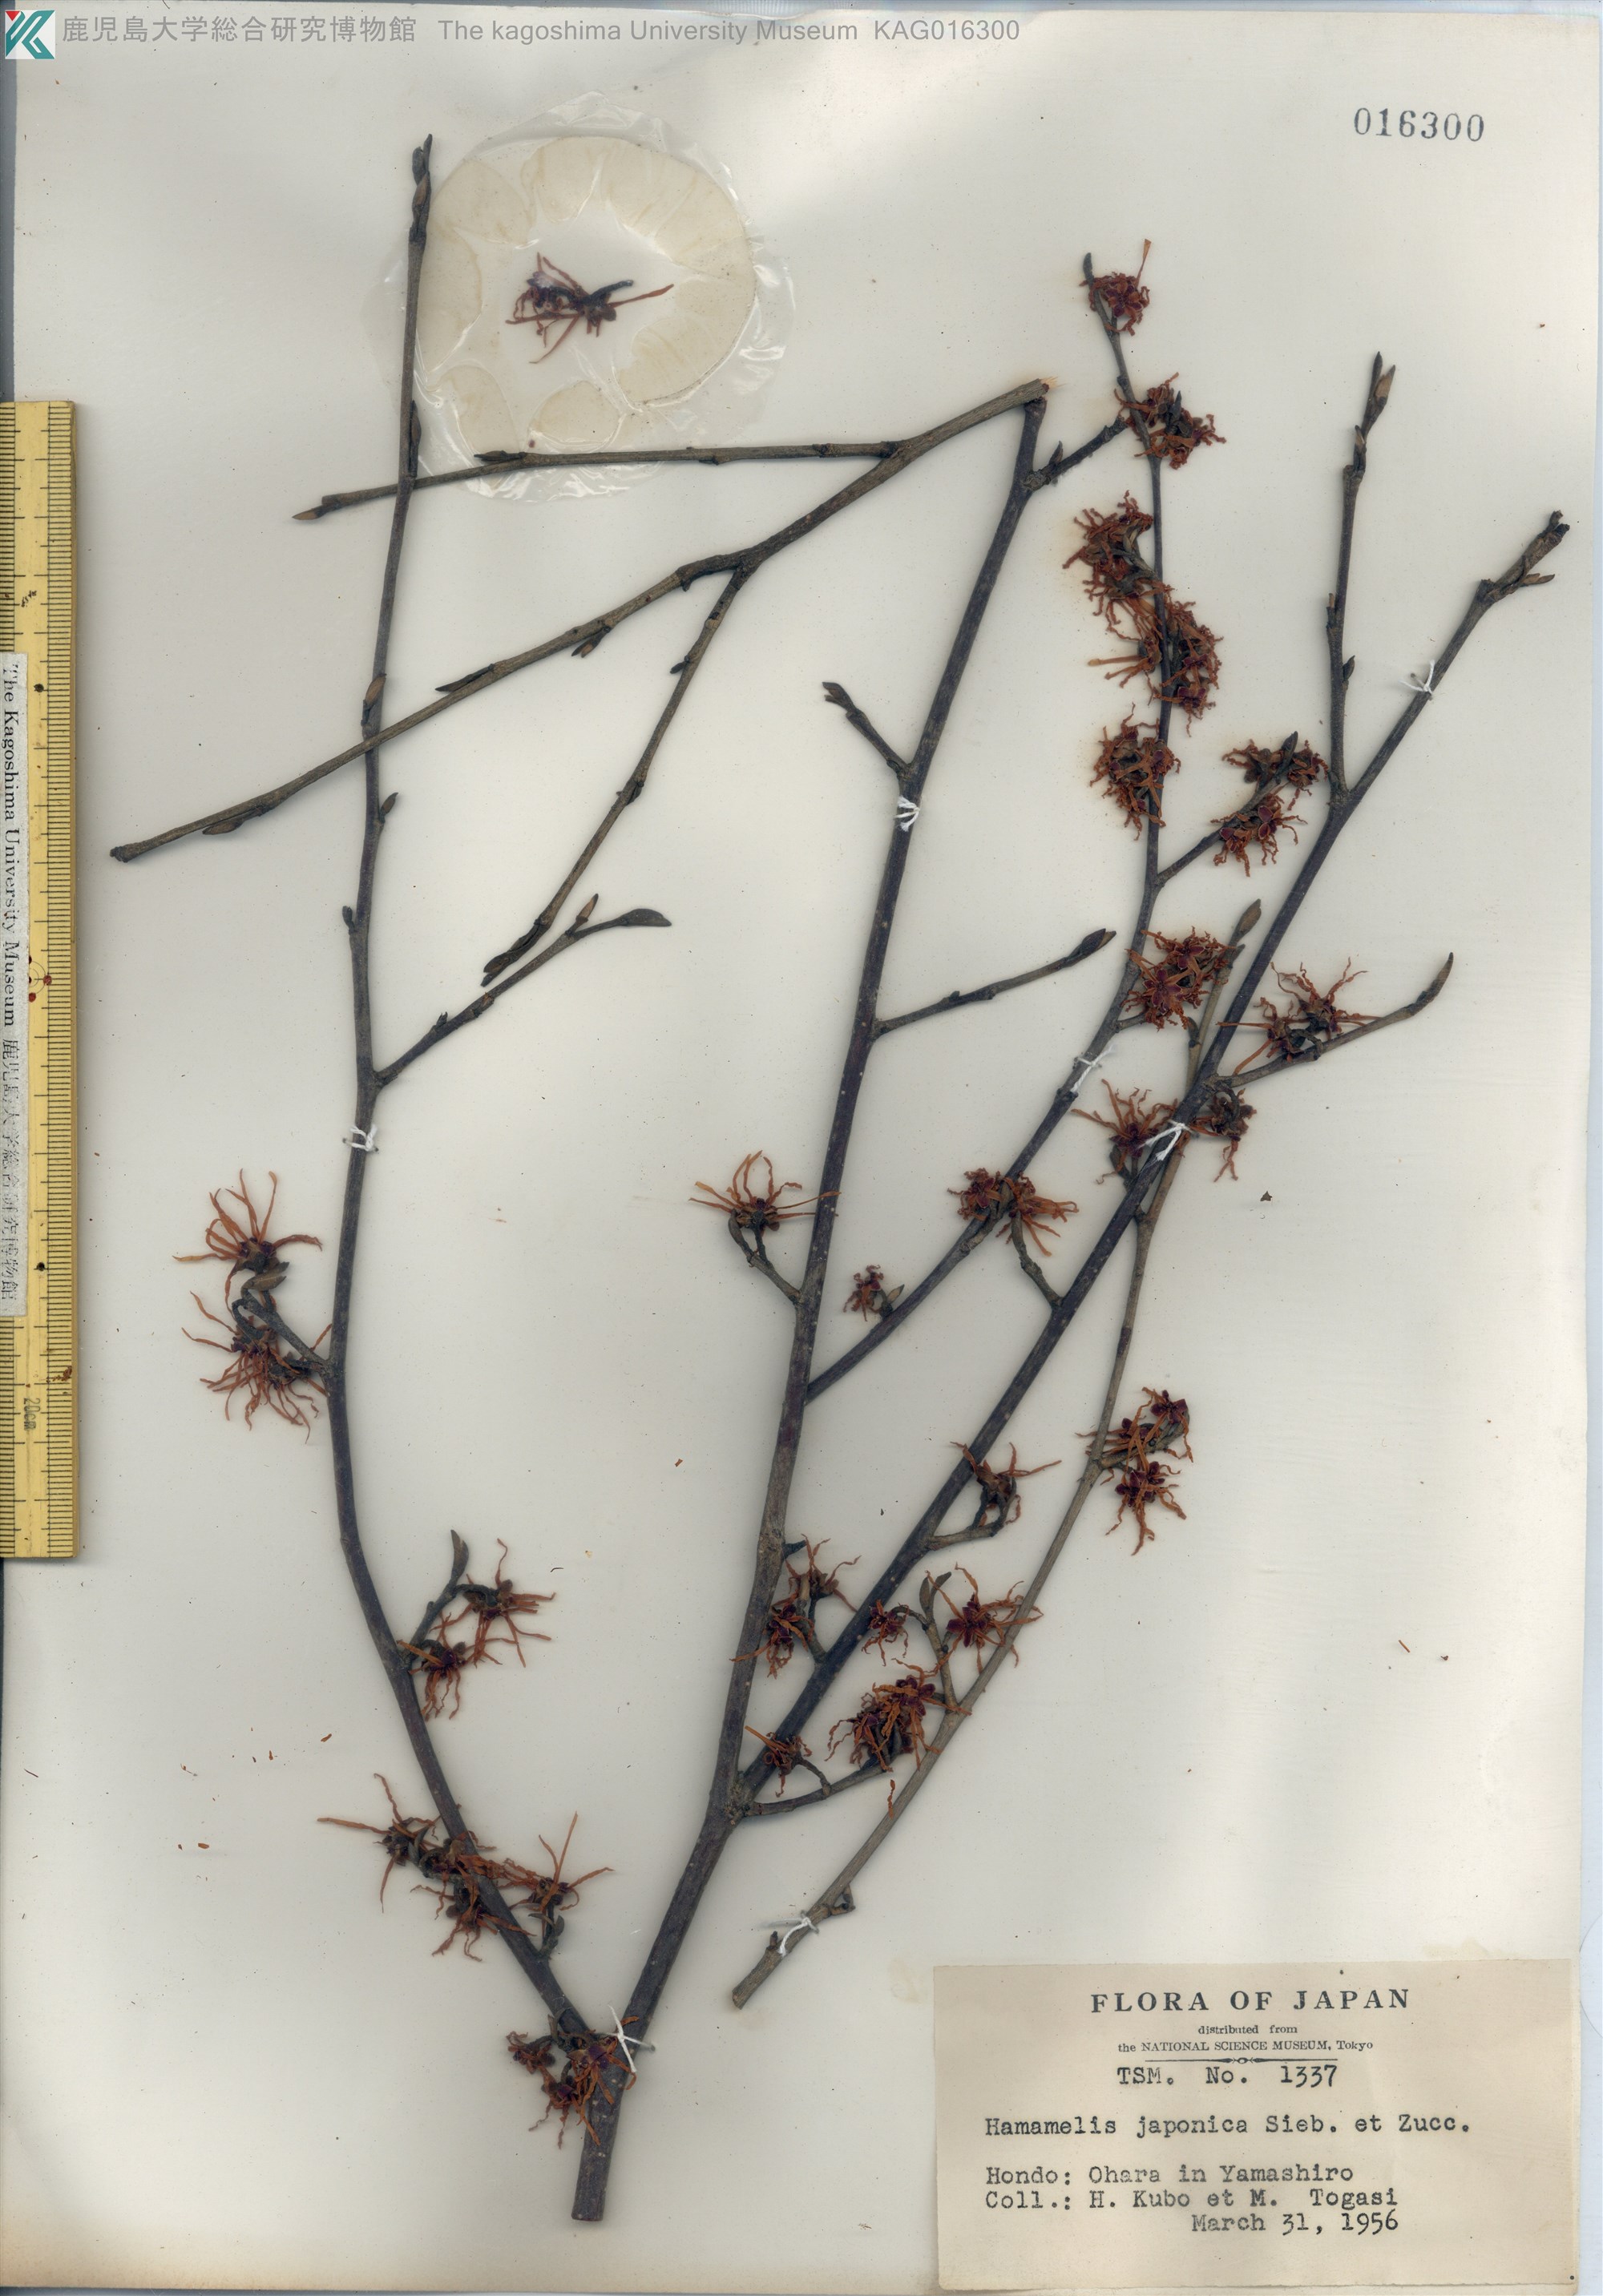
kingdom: Plantae
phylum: Tracheophyta
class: Magnoliopsida
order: Saxifragales
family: Hamamelidaceae
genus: Hamamelis
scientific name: Hamamelis japonica
